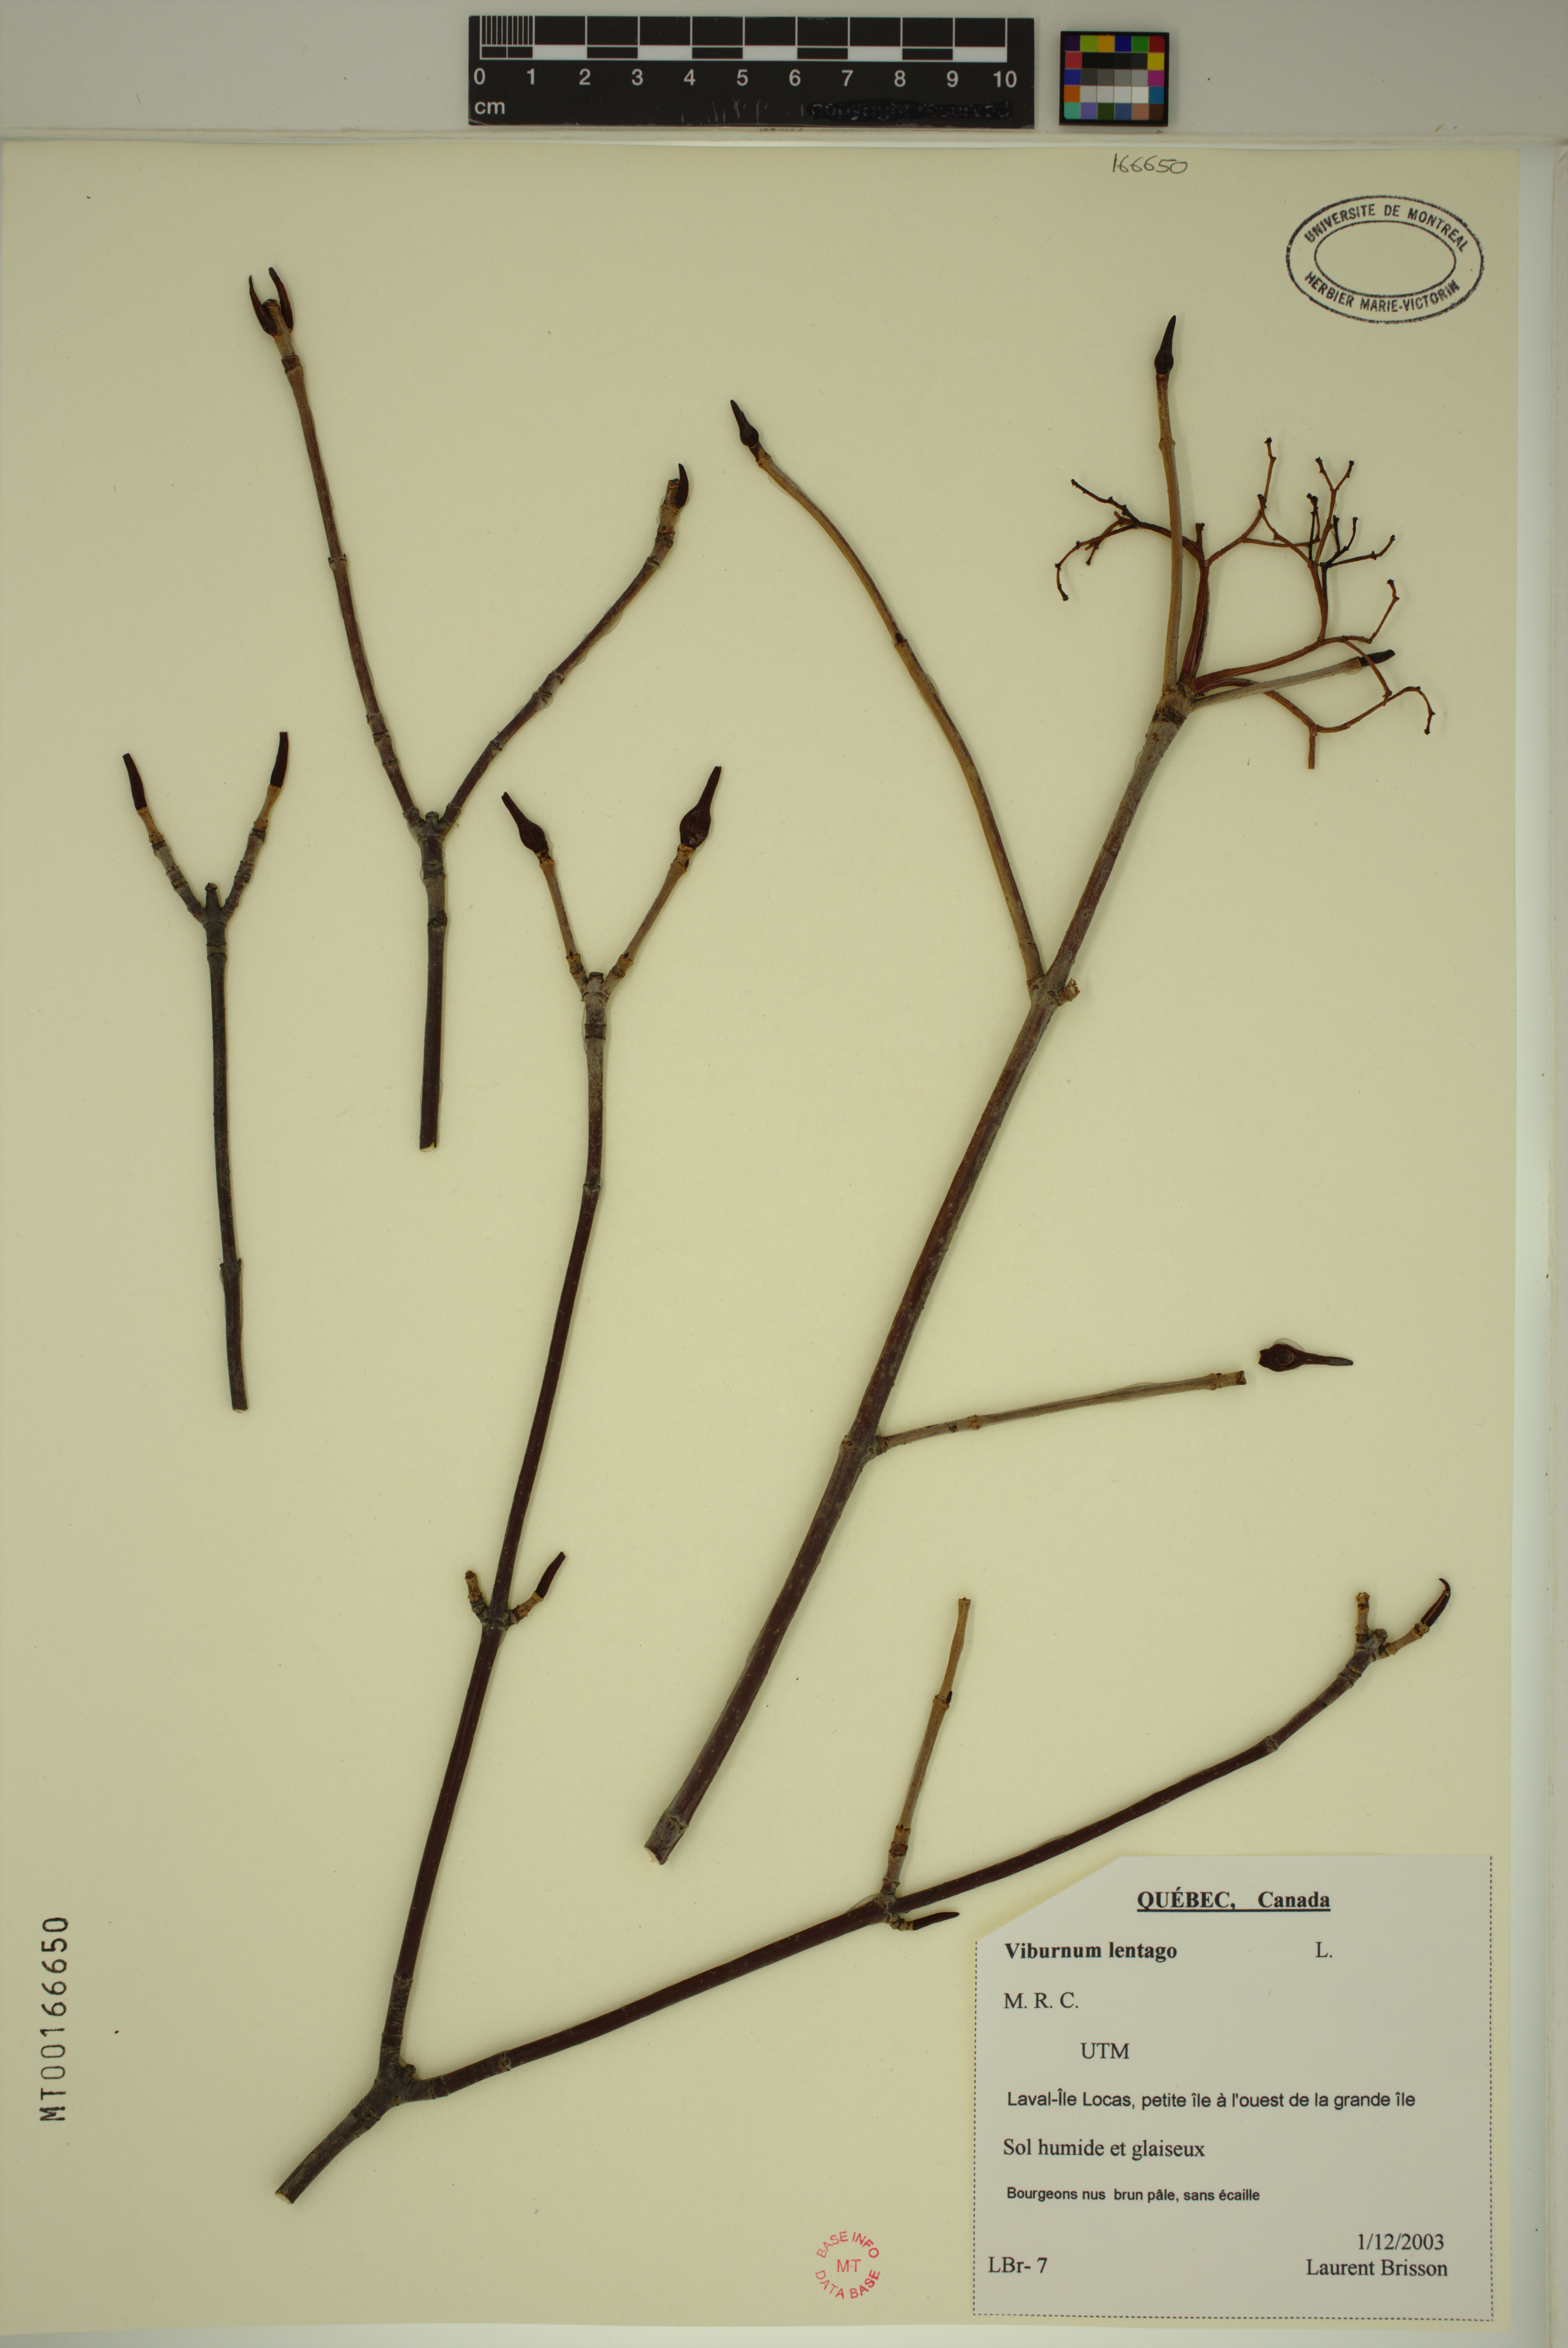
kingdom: Plantae
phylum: Tracheophyta
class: Magnoliopsida
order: Dipsacales
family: Viburnaceae
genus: Viburnum
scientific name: Viburnum lentago
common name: Black haw
